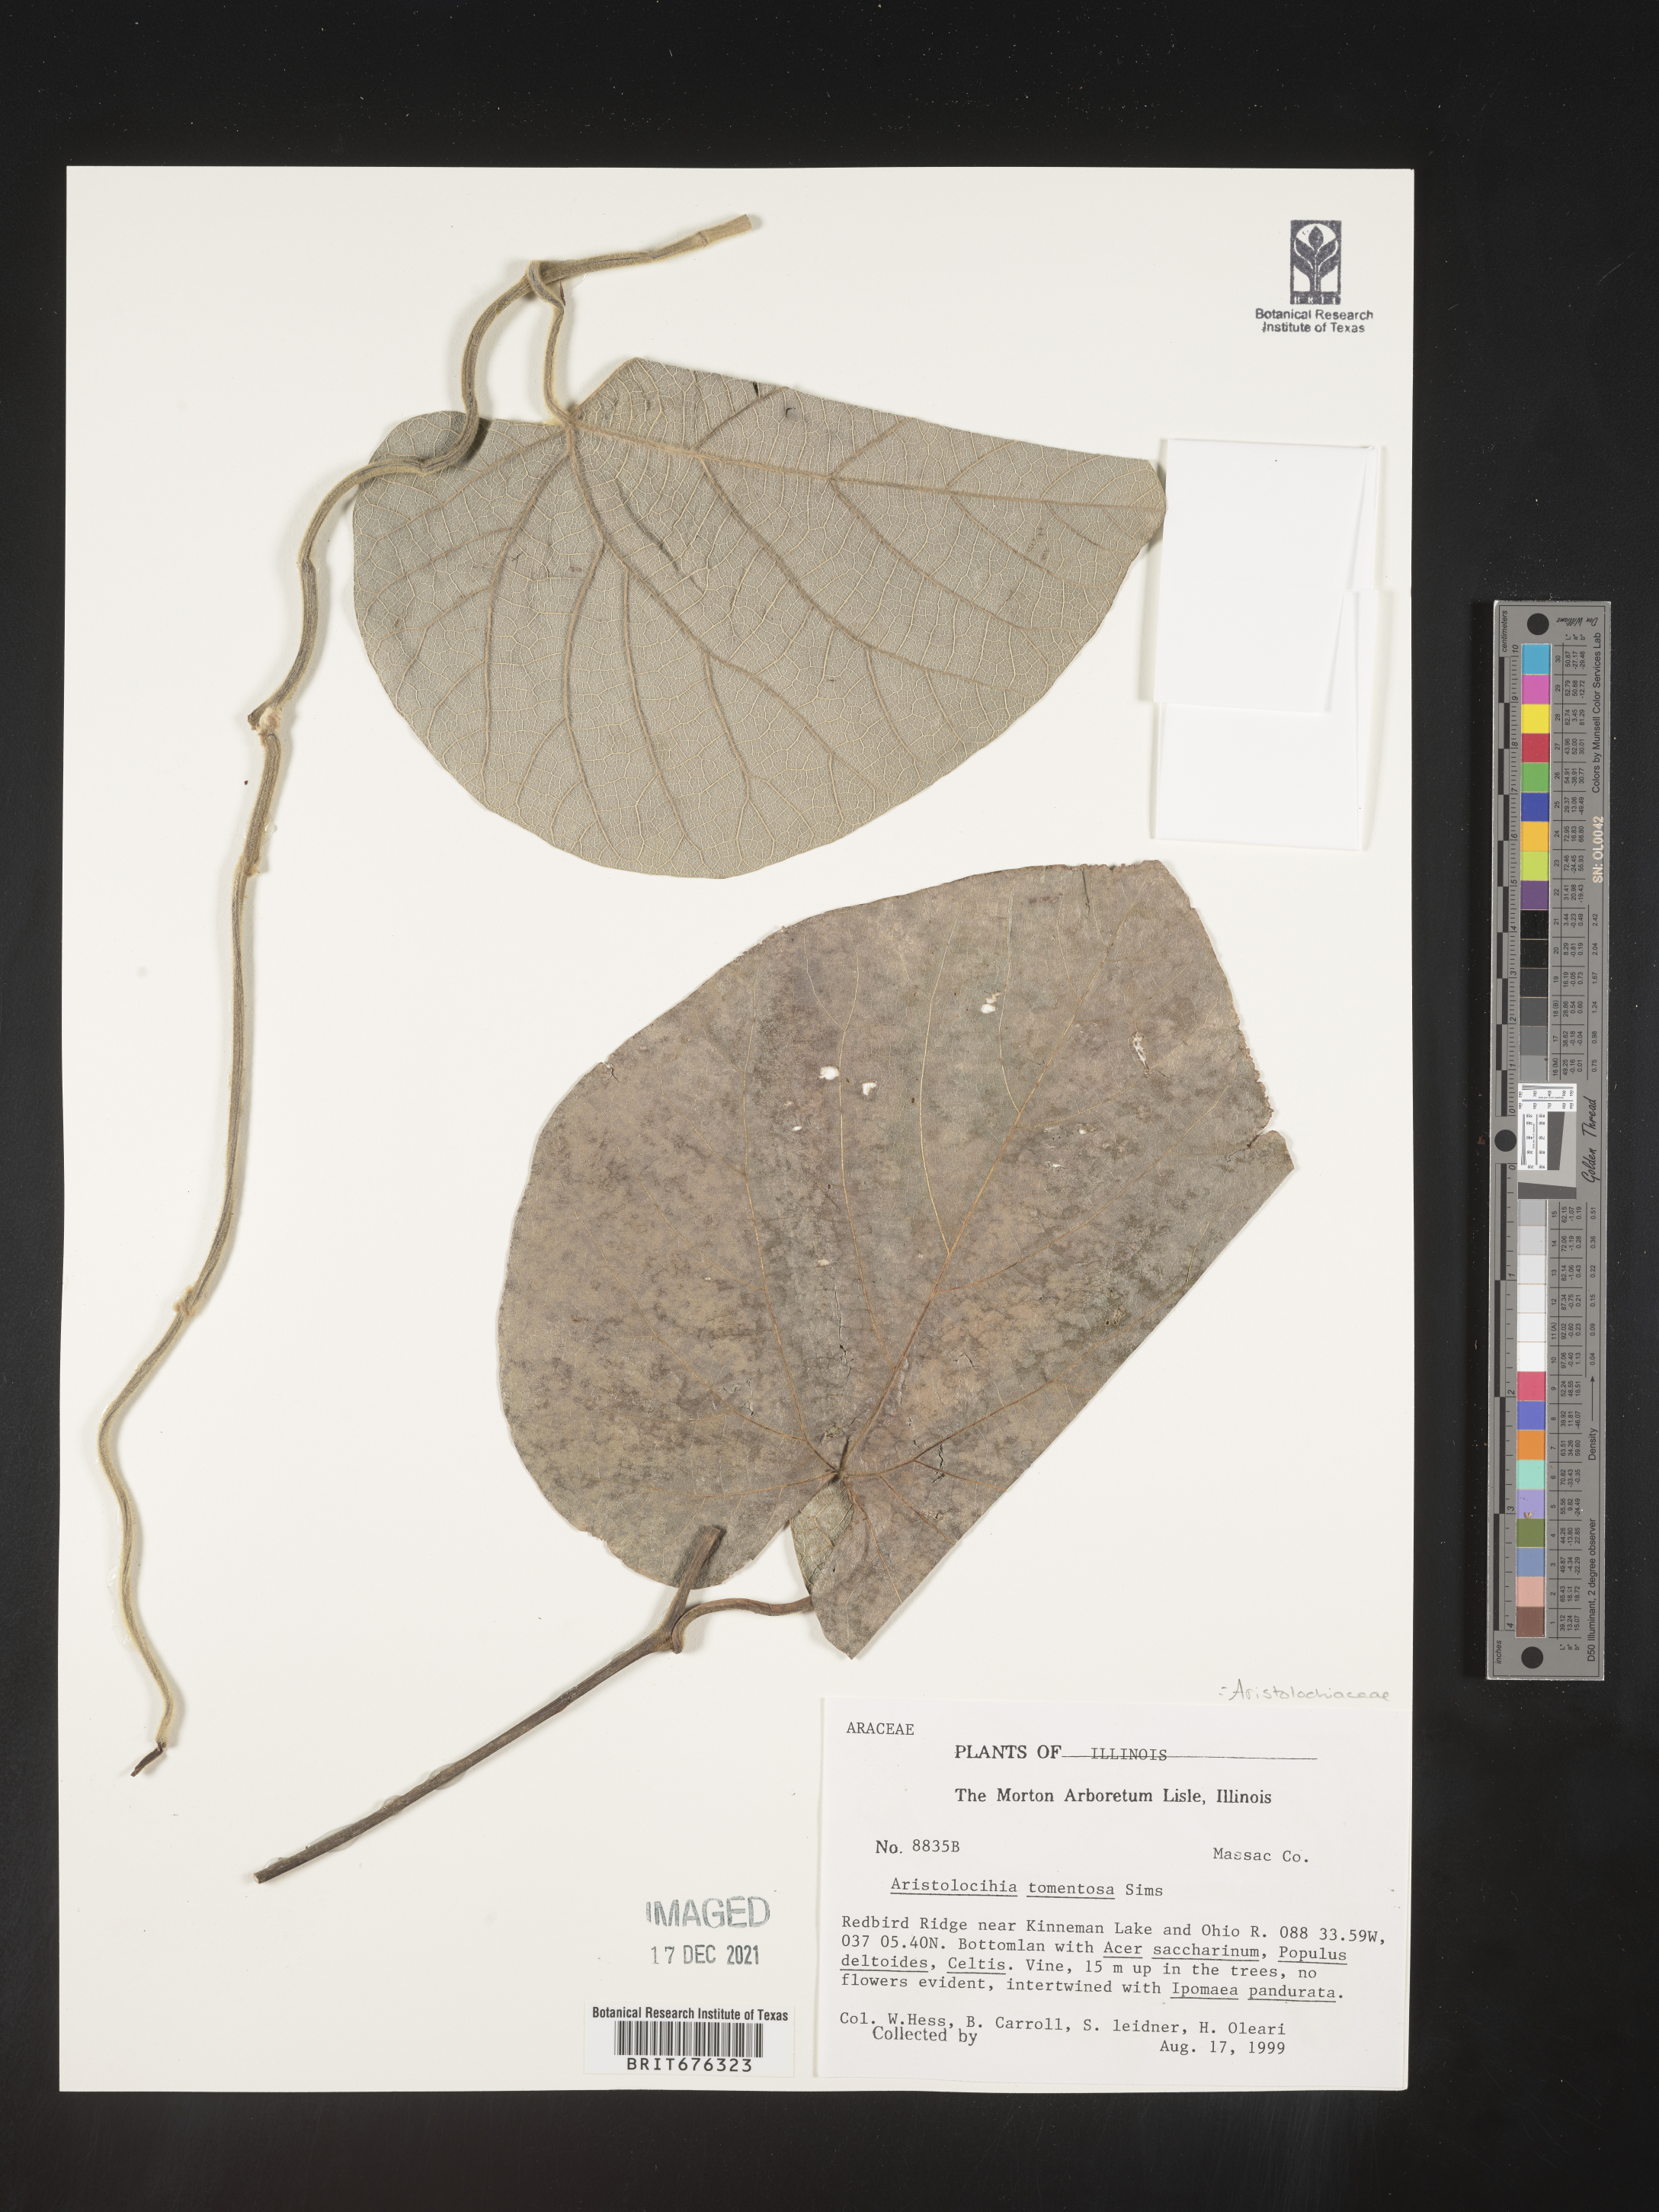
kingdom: Plantae
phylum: Tracheophyta
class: Magnoliopsida
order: Piperales
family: Aristolochiaceae
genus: Isotrema
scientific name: Isotrema tomentosum
